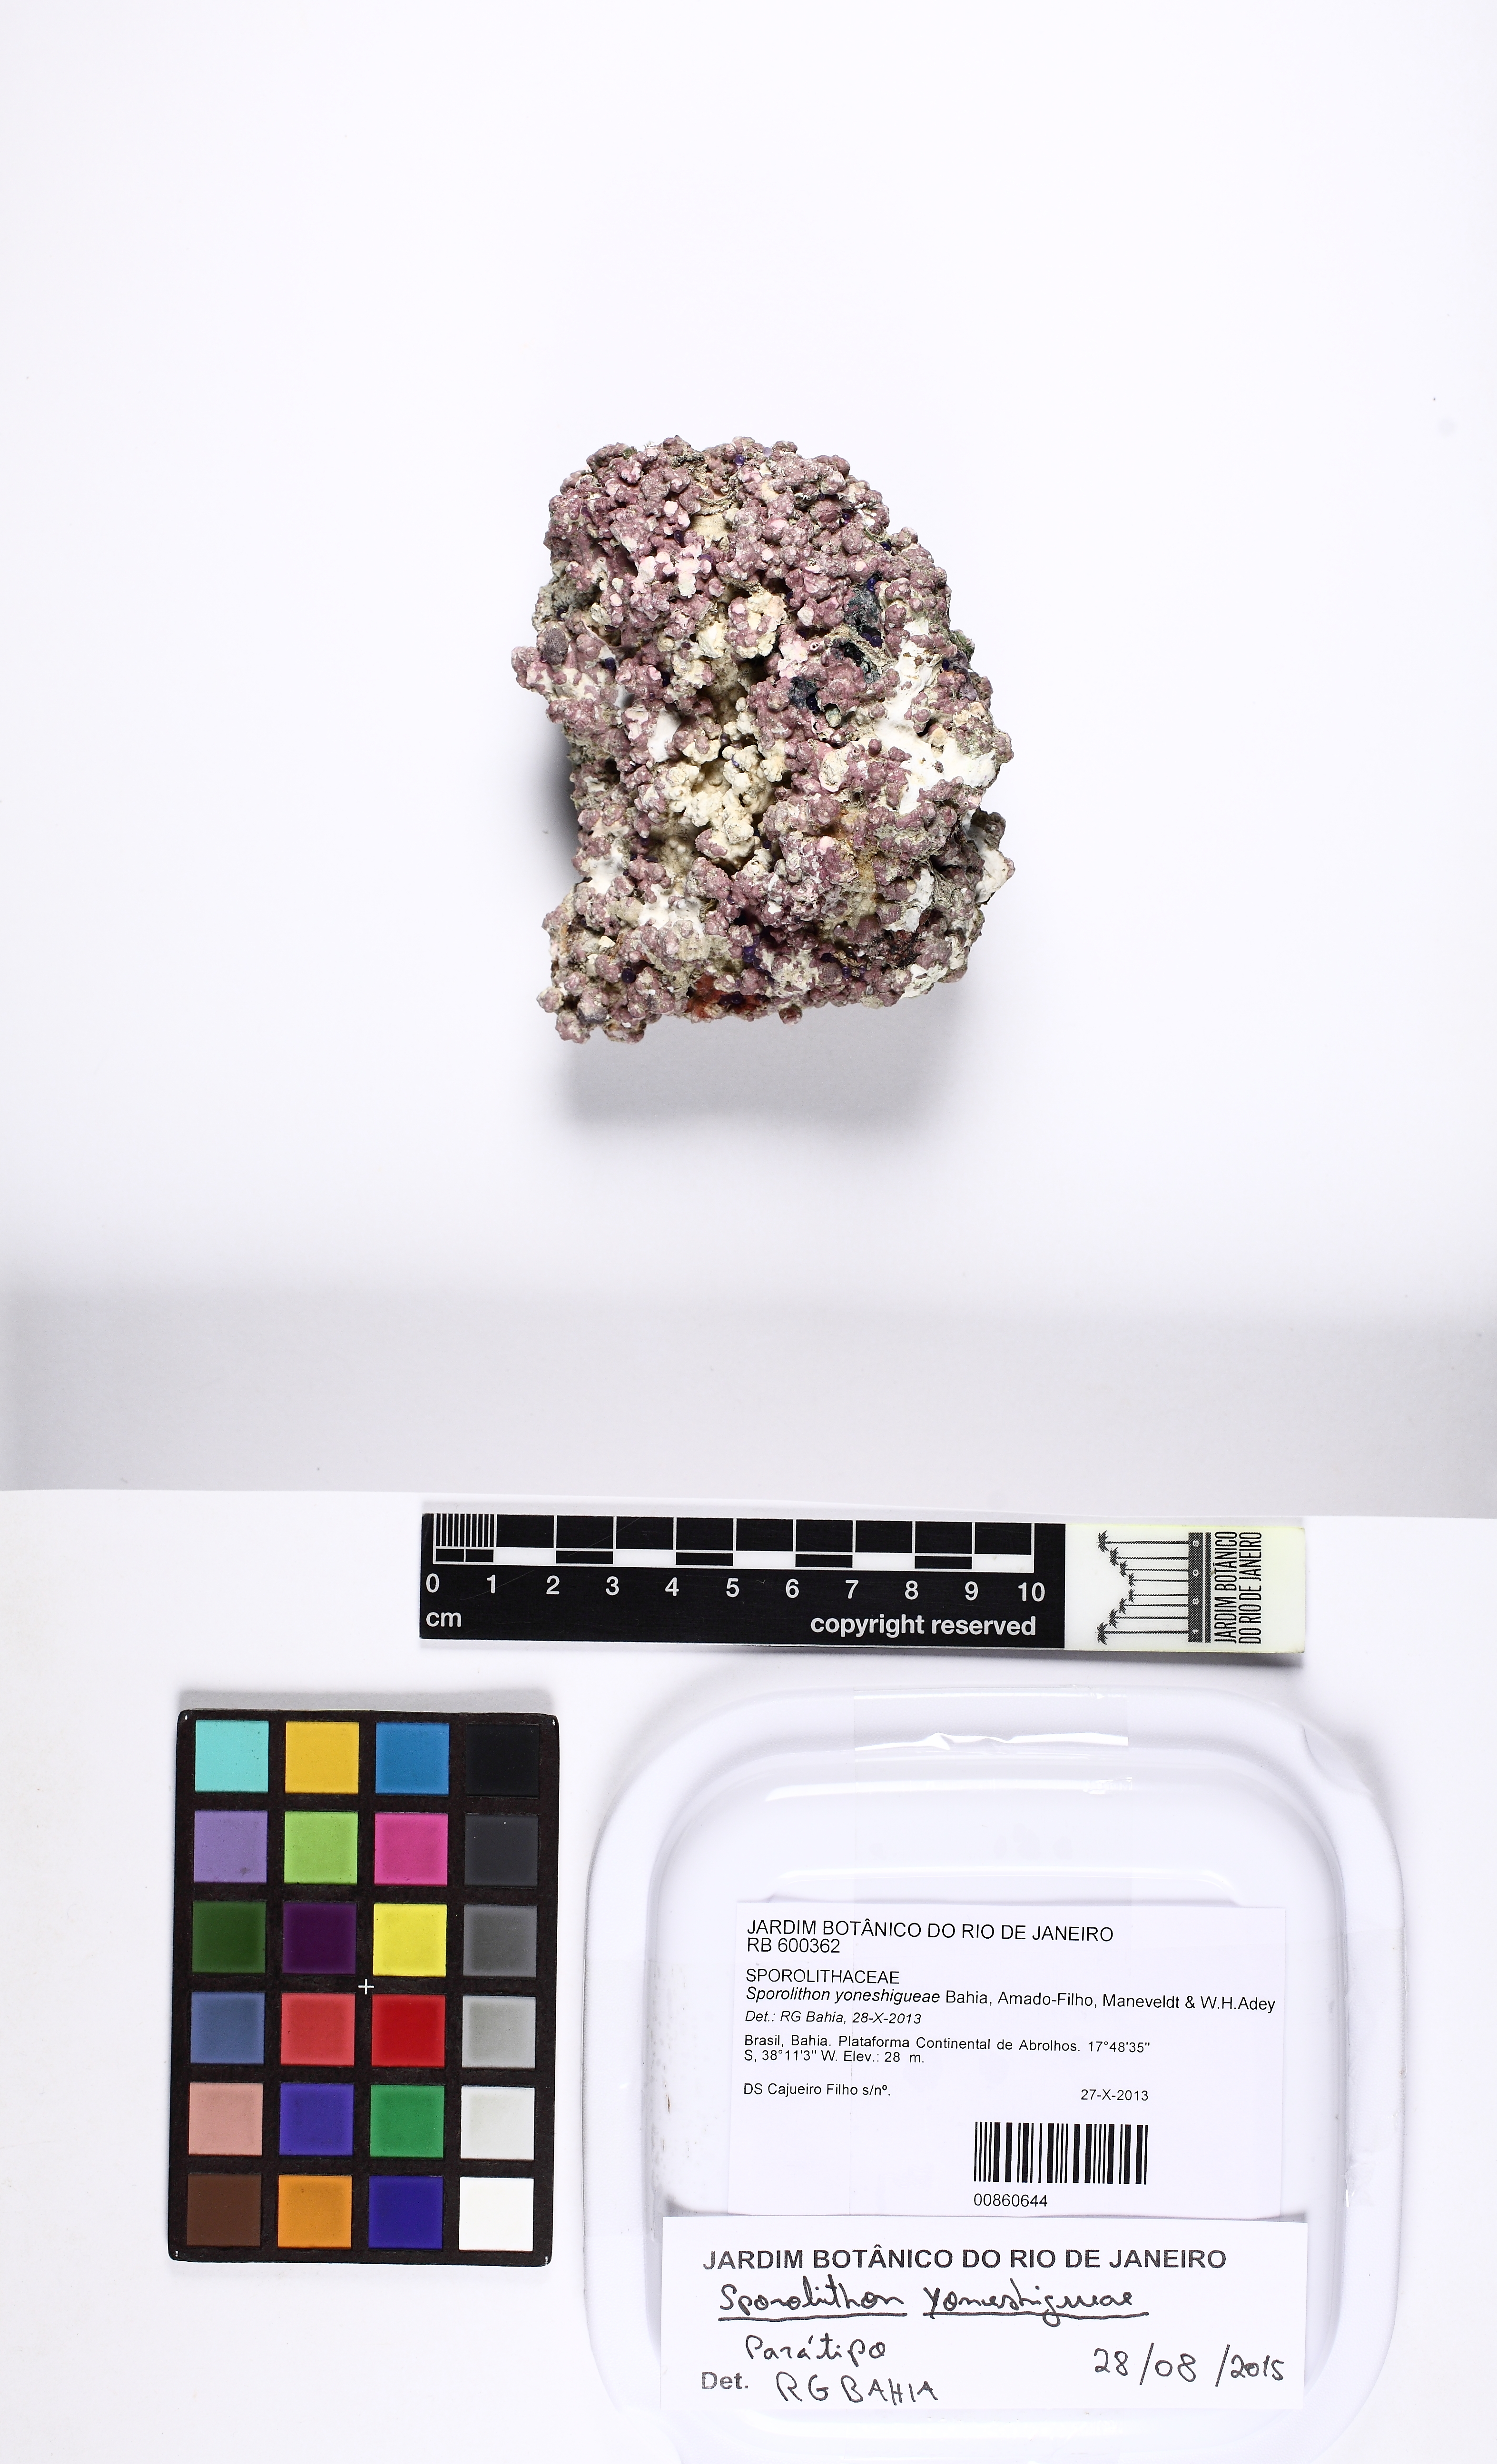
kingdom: Plantae
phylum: Rhodophyta
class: Florideophyceae
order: Corallinales
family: Sporolithaceae
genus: Sporolithon
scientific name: Sporolithon yoneshigueae
